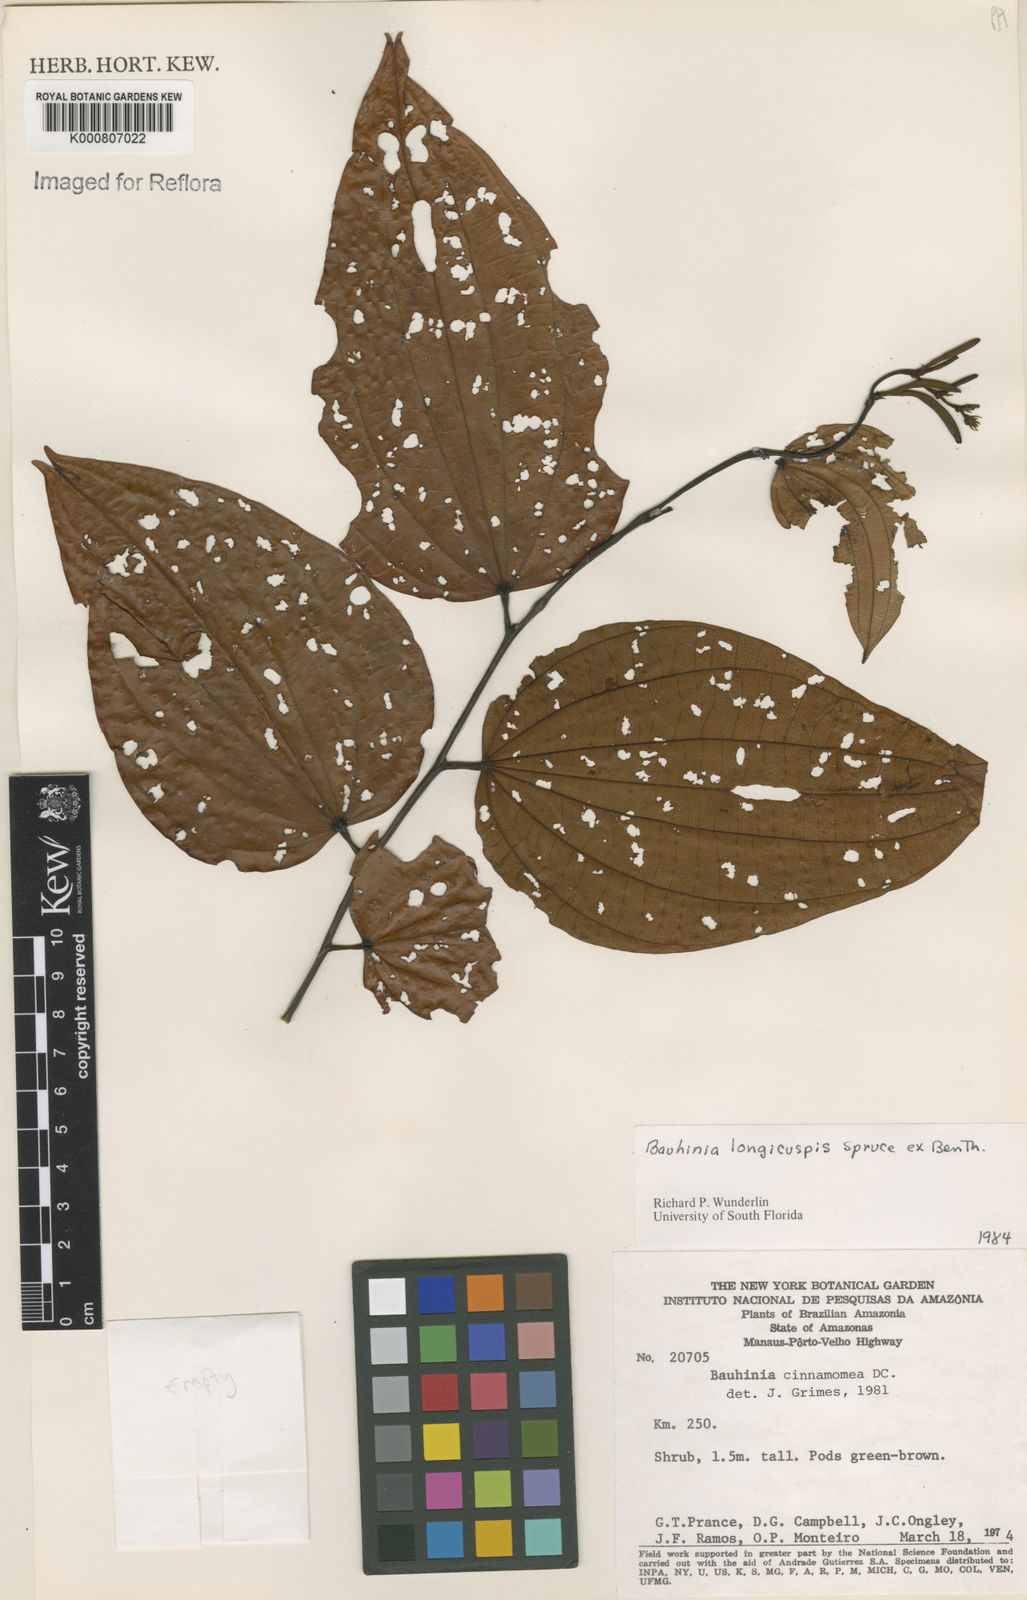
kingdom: Plantae
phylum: Tracheophyta
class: Magnoliopsida
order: Fabales
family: Fabaceae
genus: Bauhinia
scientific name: Bauhinia longicuspis
